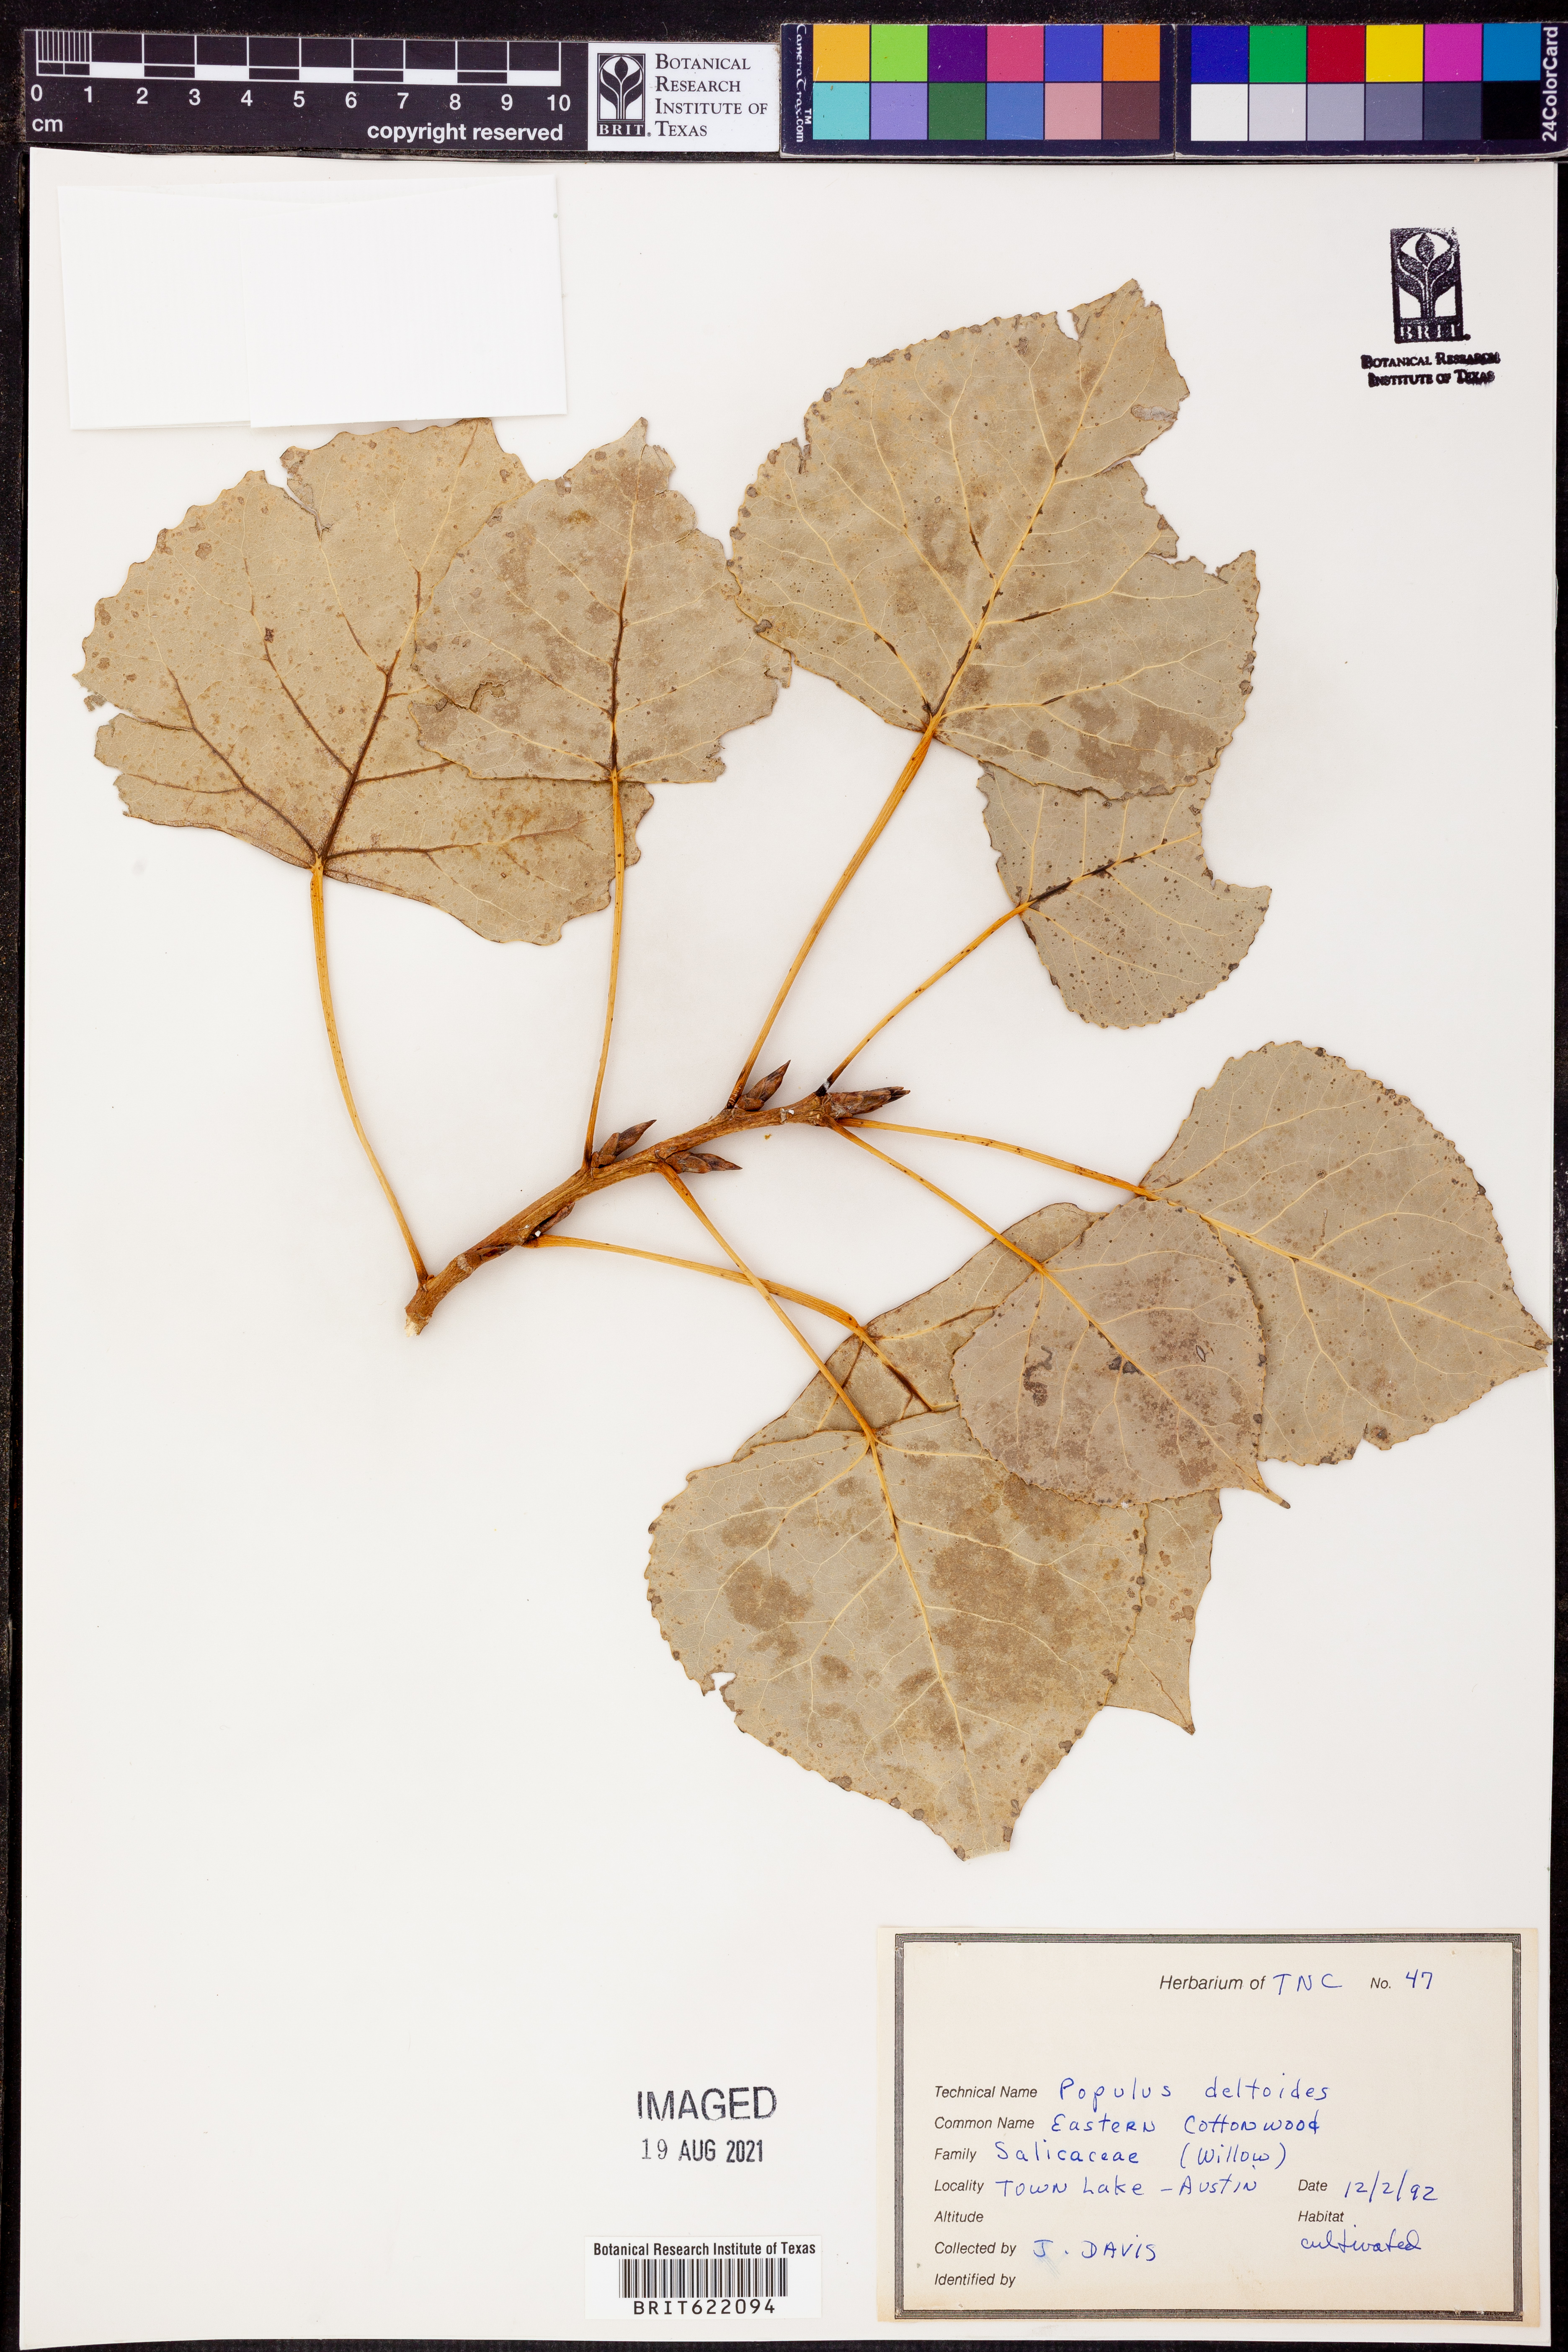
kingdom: Plantae
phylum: Tracheophyta
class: Magnoliopsida
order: Malpighiales
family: Salicaceae
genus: Populus
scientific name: Populus deltoides
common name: Eastern cottonwood
